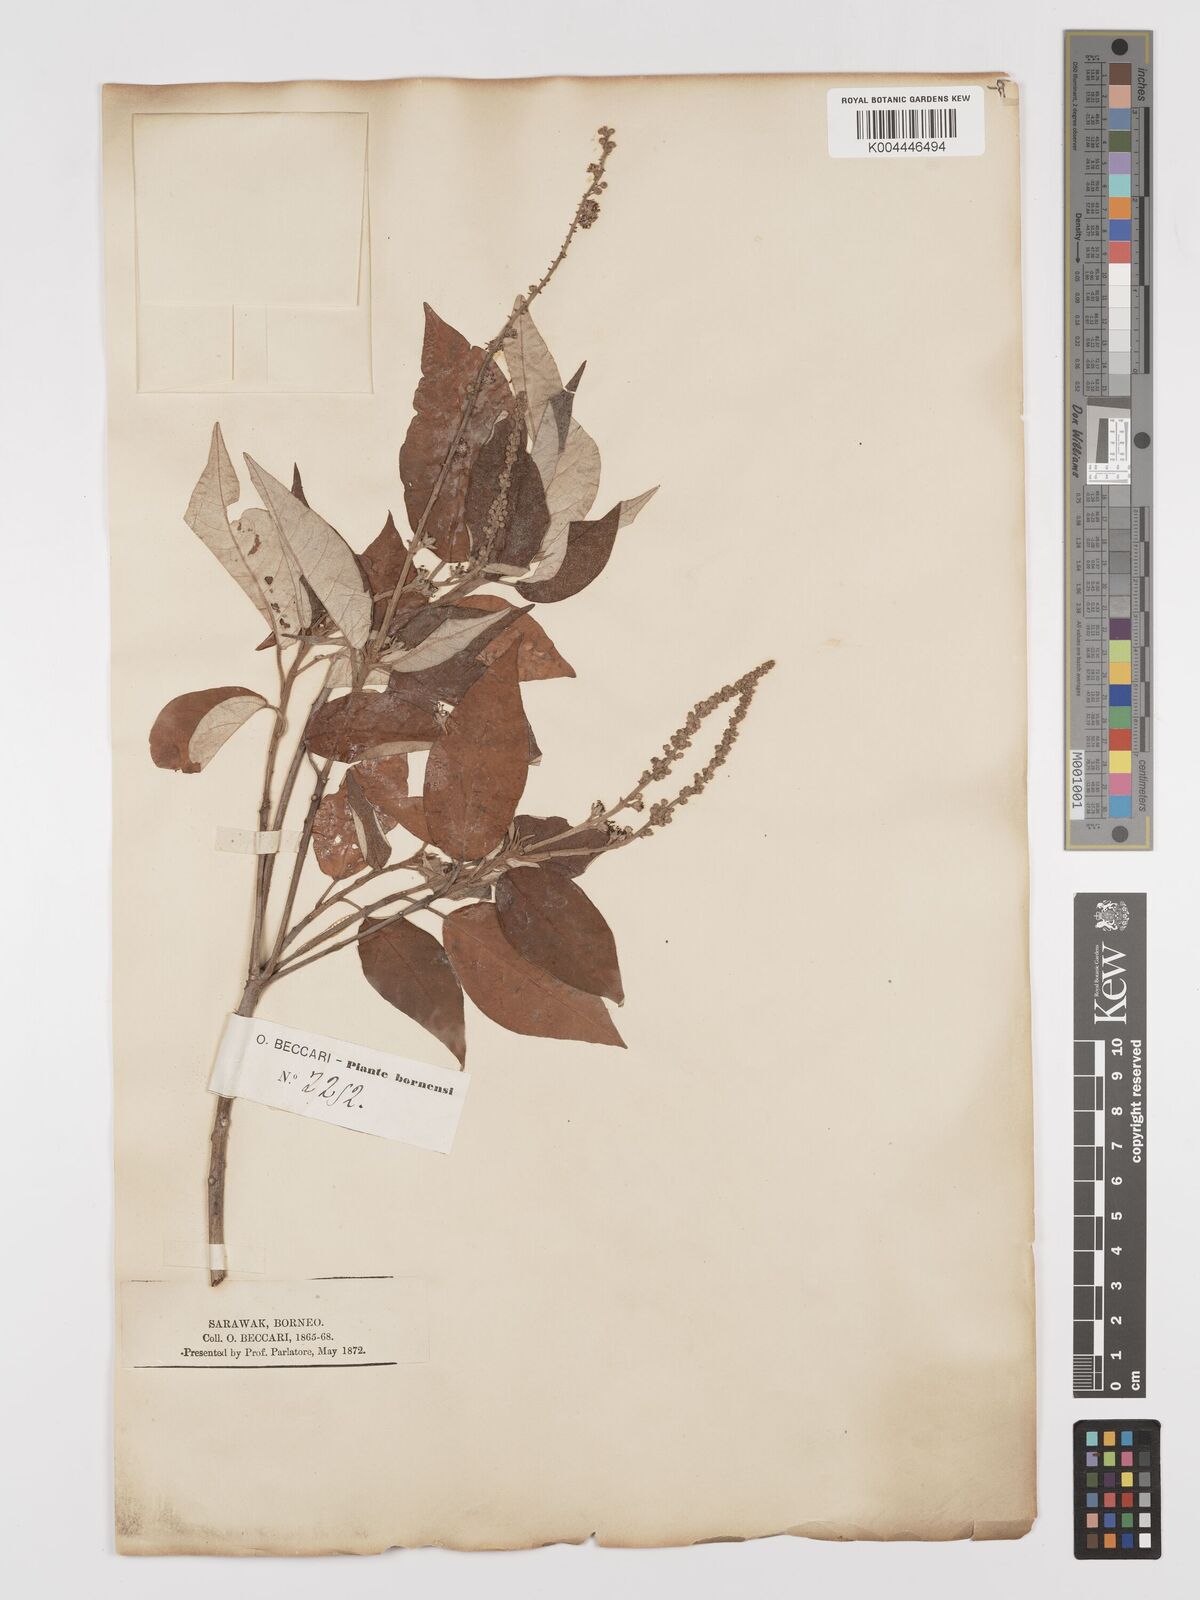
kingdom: Plantae
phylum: Tracheophyta
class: Magnoliopsida
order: Malpighiales
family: Euphorbiaceae
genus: Croton
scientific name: Croton argyratus
